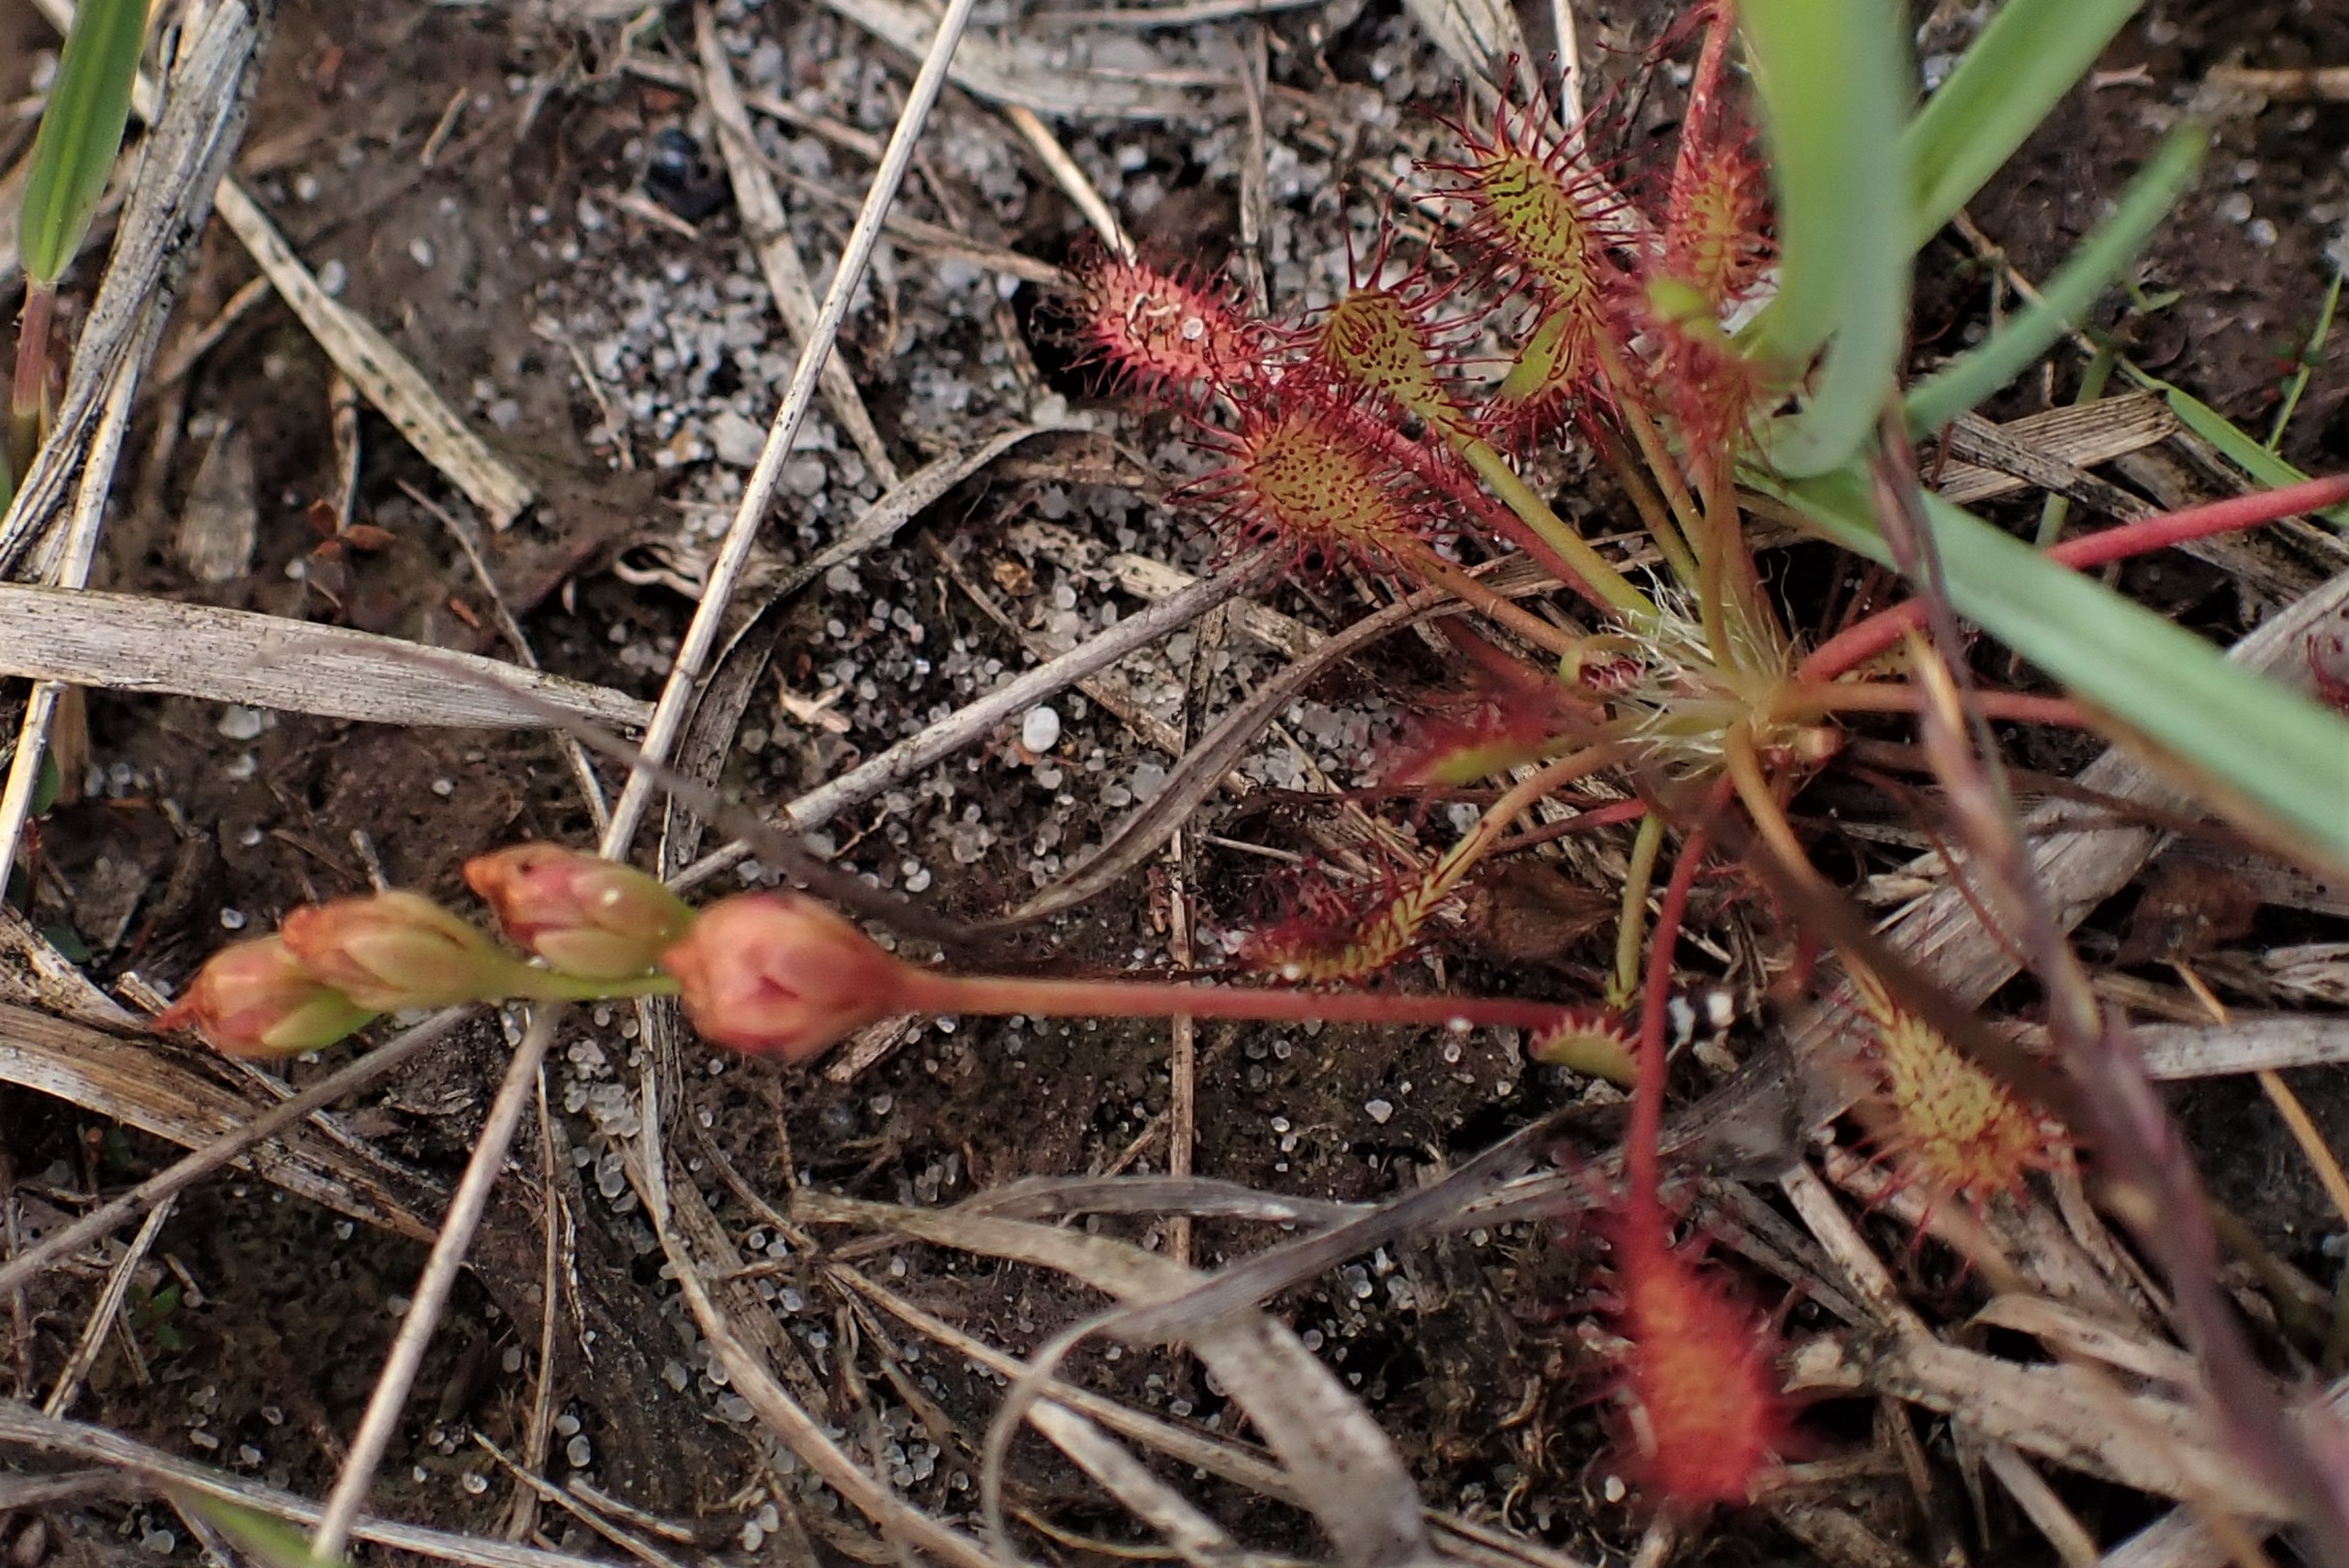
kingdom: Plantae
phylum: Tracheophyta
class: Magnoliopsida
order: Caryophyllales
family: Droseraceae
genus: Drosera
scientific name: Drosera intermedia
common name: Liden soldug
